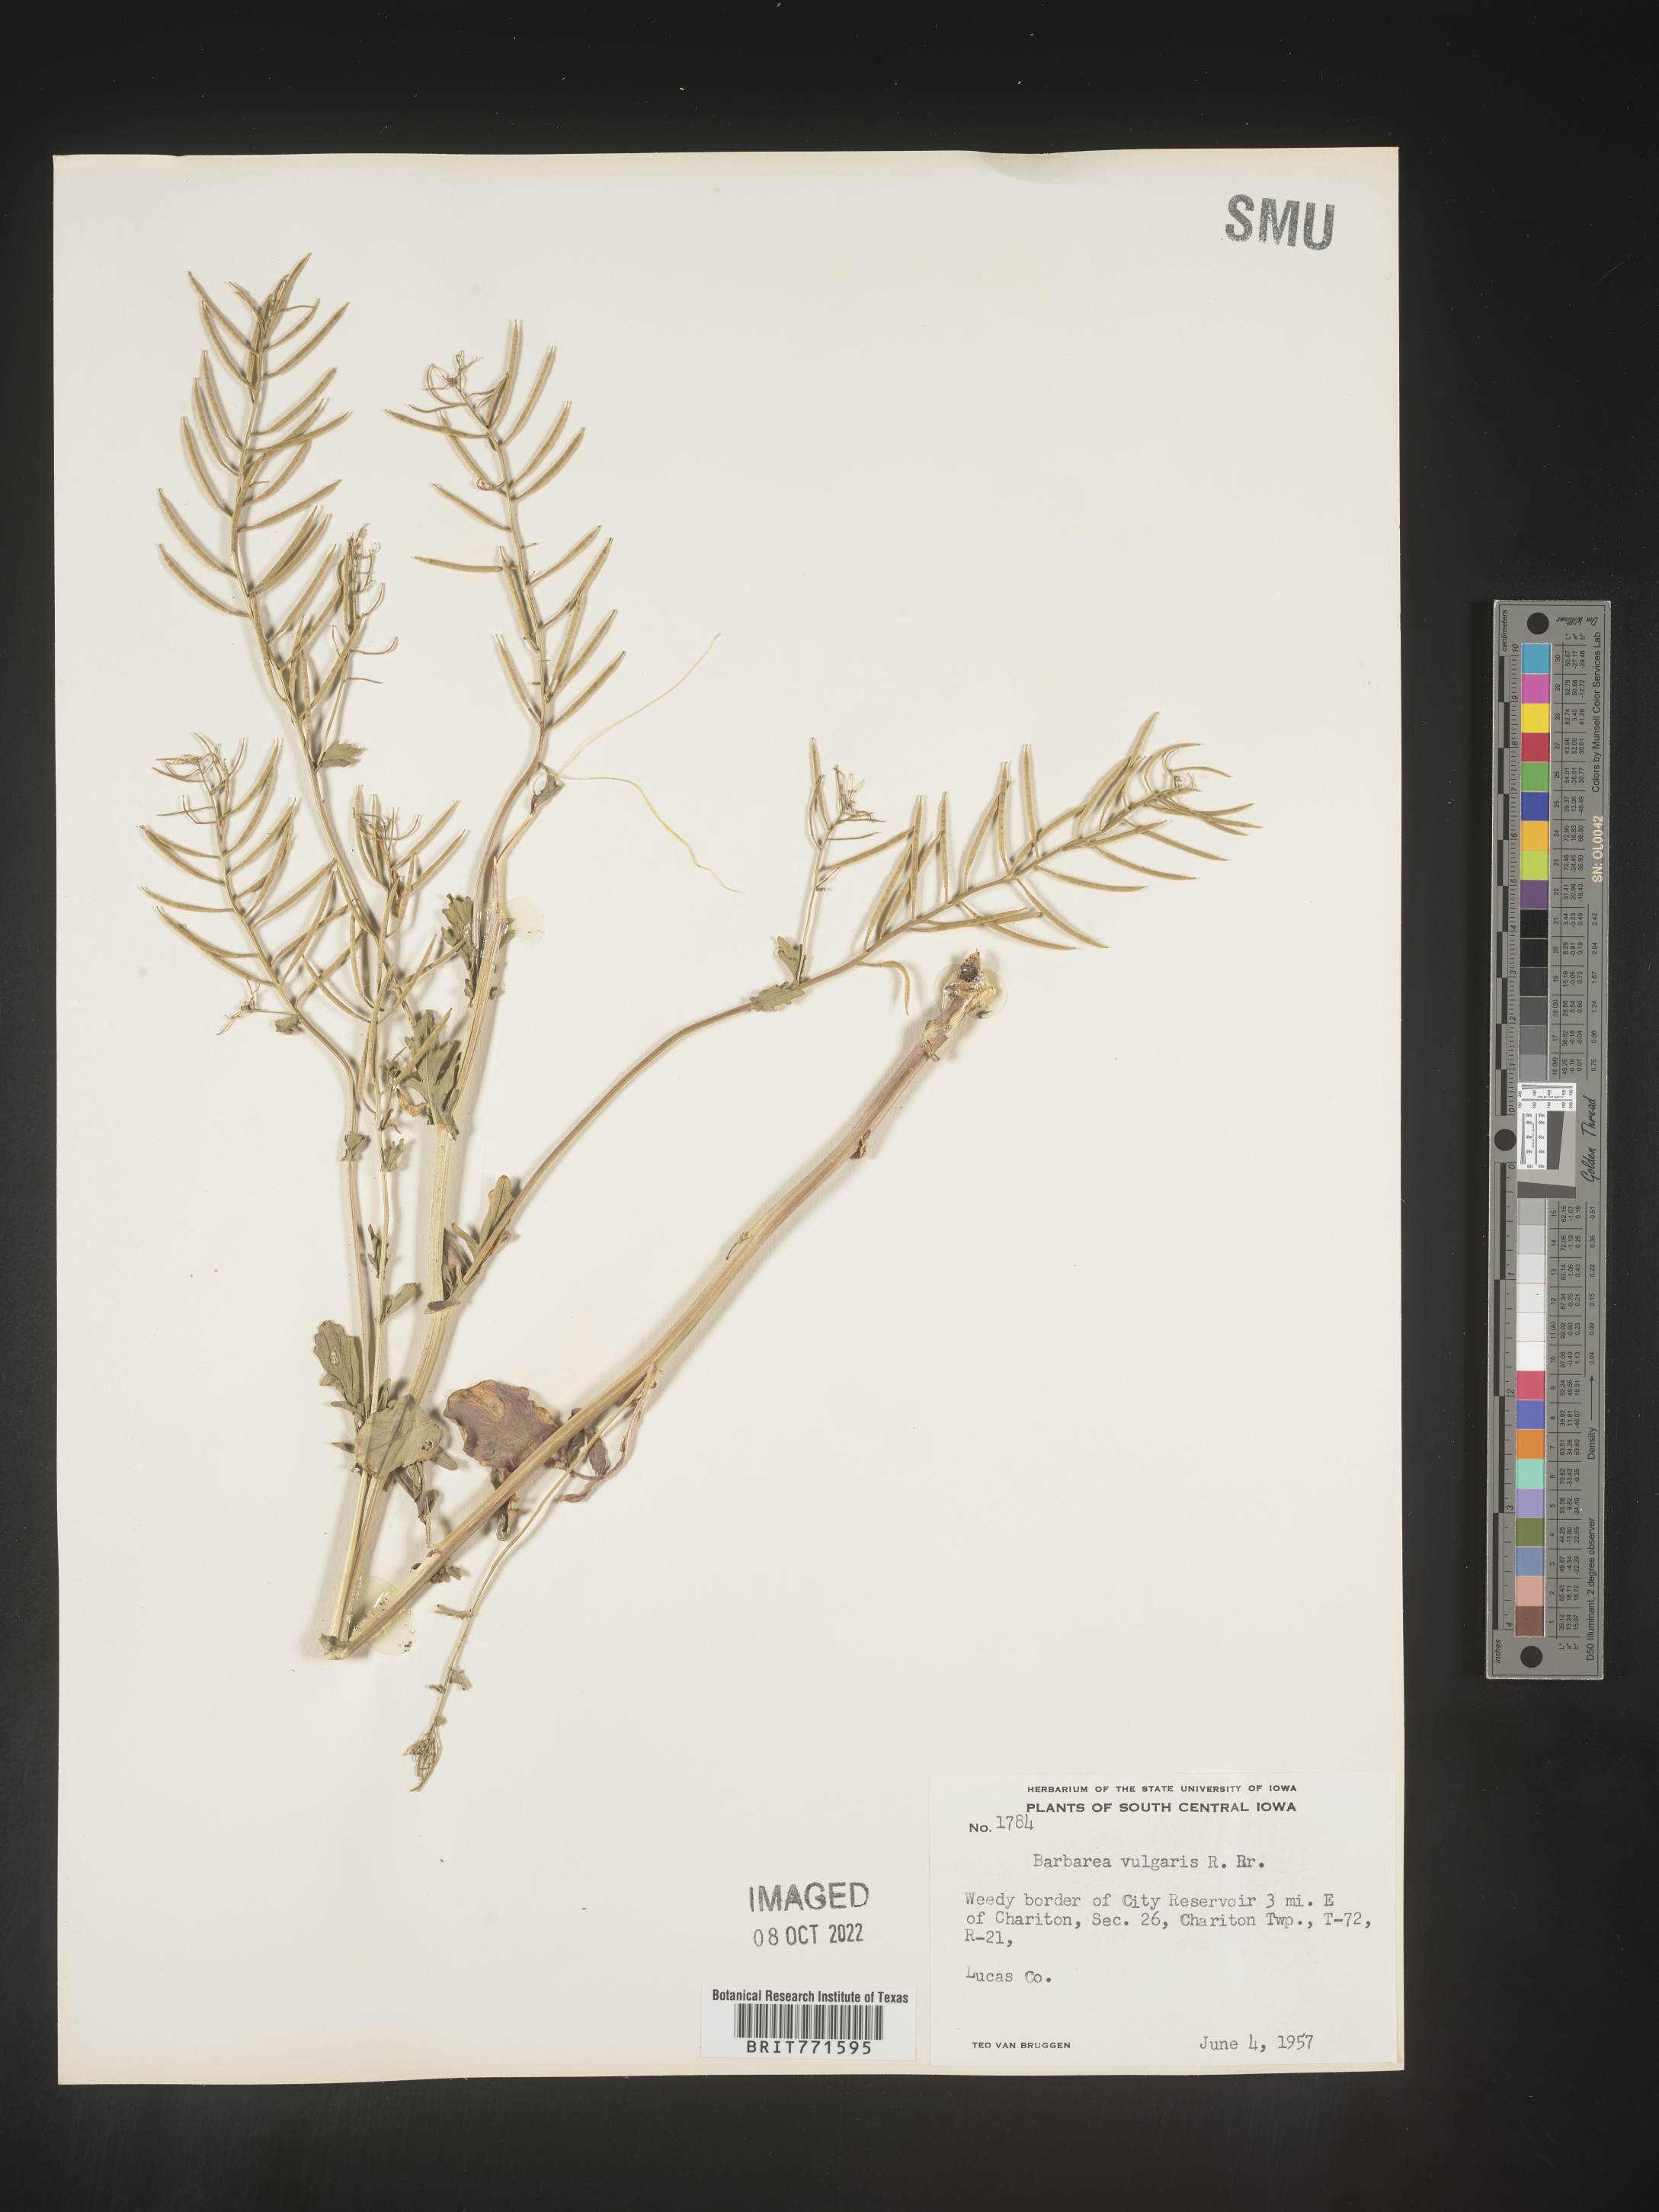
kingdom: Plantae
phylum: Tracheophyta
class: Magnoliopsida
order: Brassicales
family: Brassicaceae
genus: Barbarea
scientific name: Barbarea vulgaris
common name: Cressy-greens
